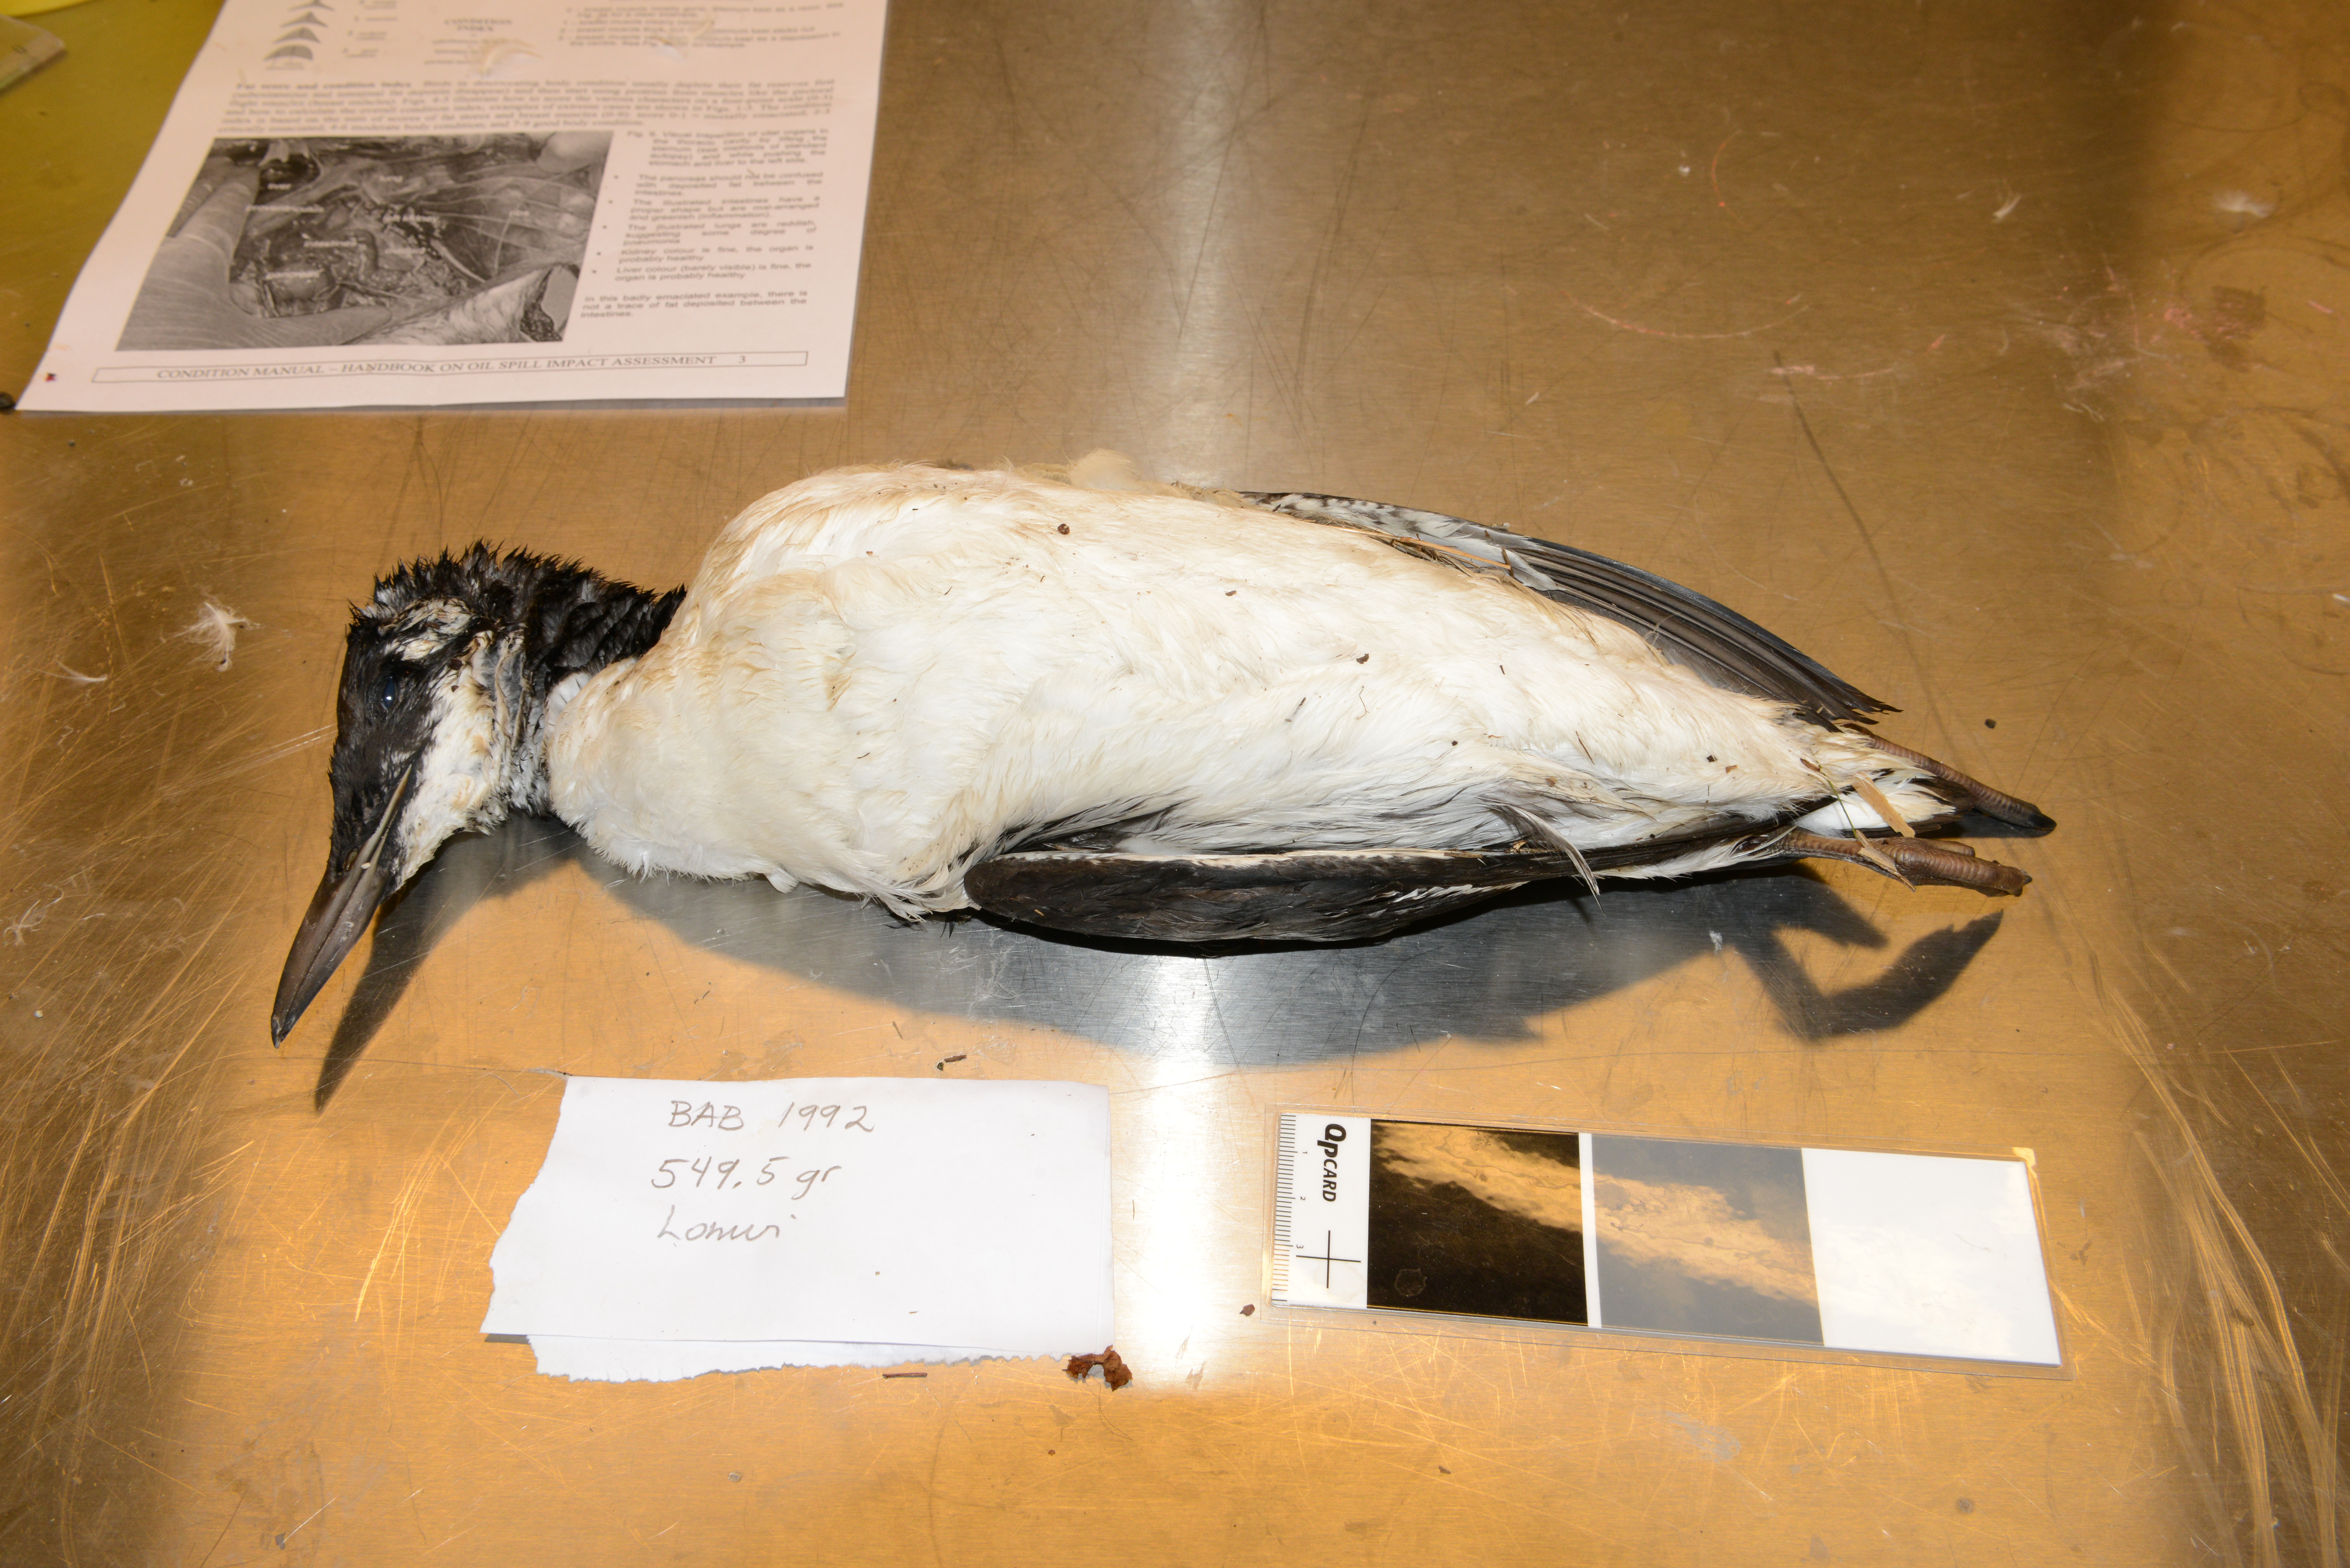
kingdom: Animalia
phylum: Chordata
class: Aves
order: Charadriiformes
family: Alcidae
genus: Uria
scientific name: Uria aalge
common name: Common murre
